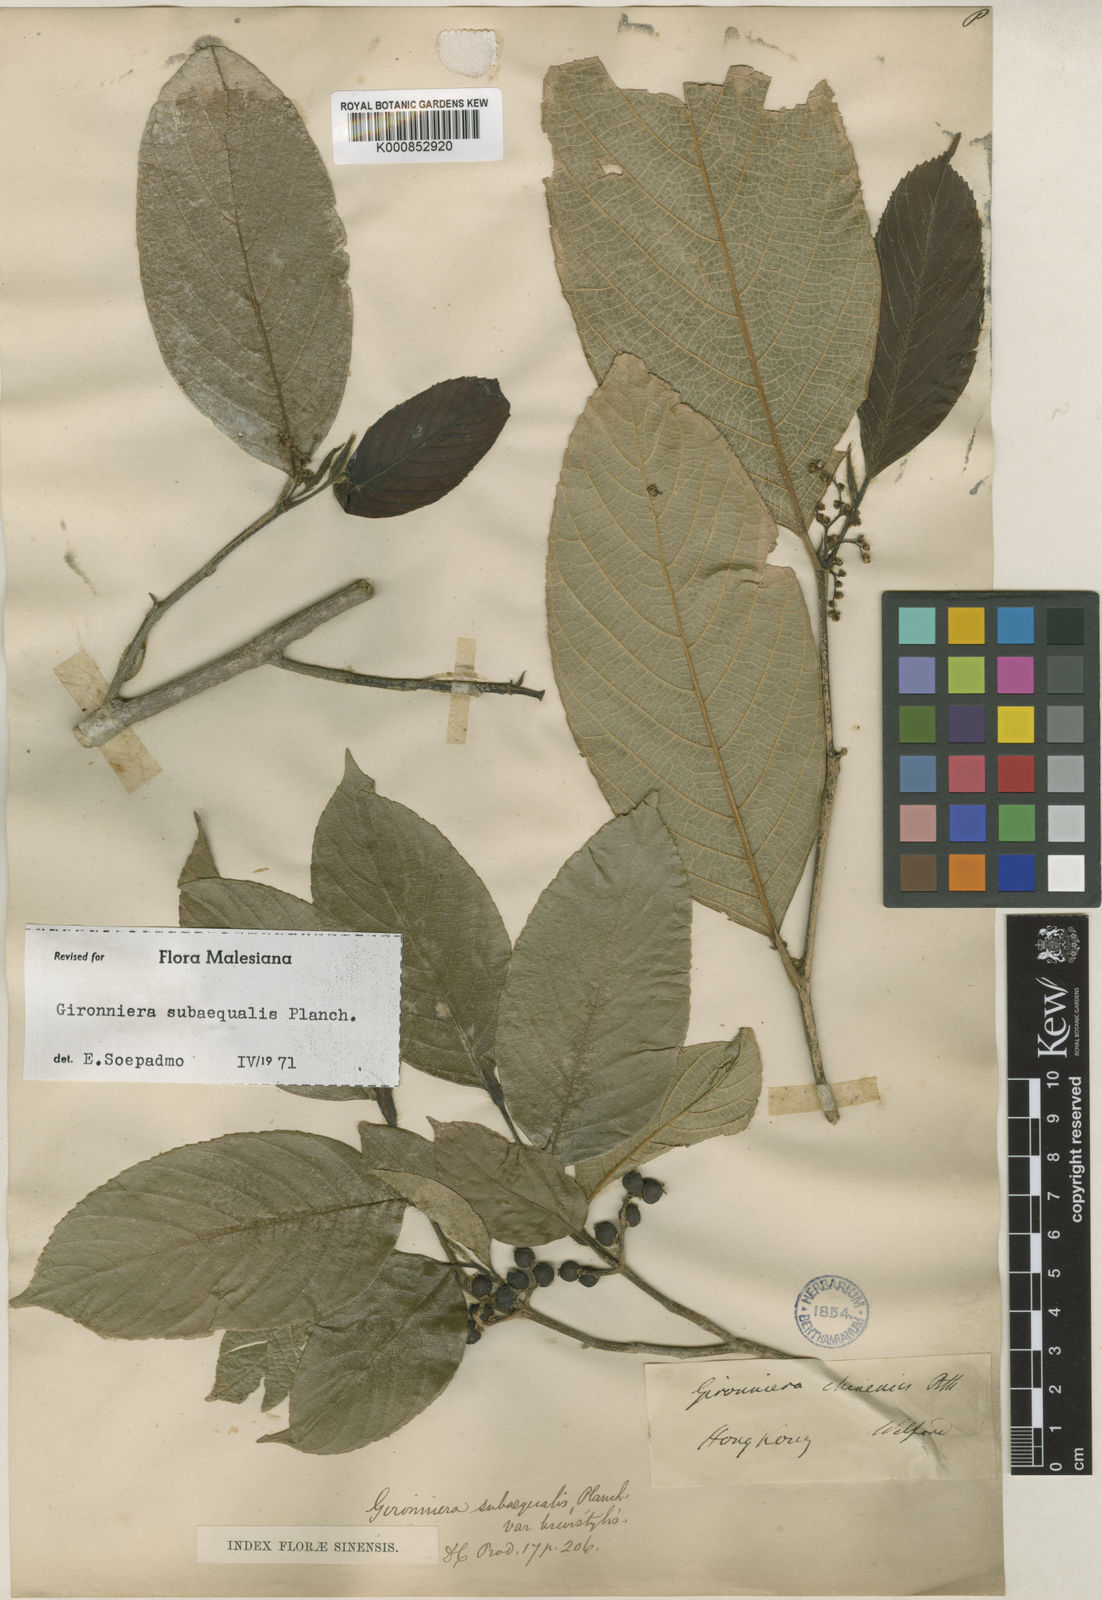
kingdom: Plantae
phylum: Tracheophyta
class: Magnoliopsida
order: Rosales
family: Cannabaceae
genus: Gironniera
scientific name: Gironniera subaequalis
